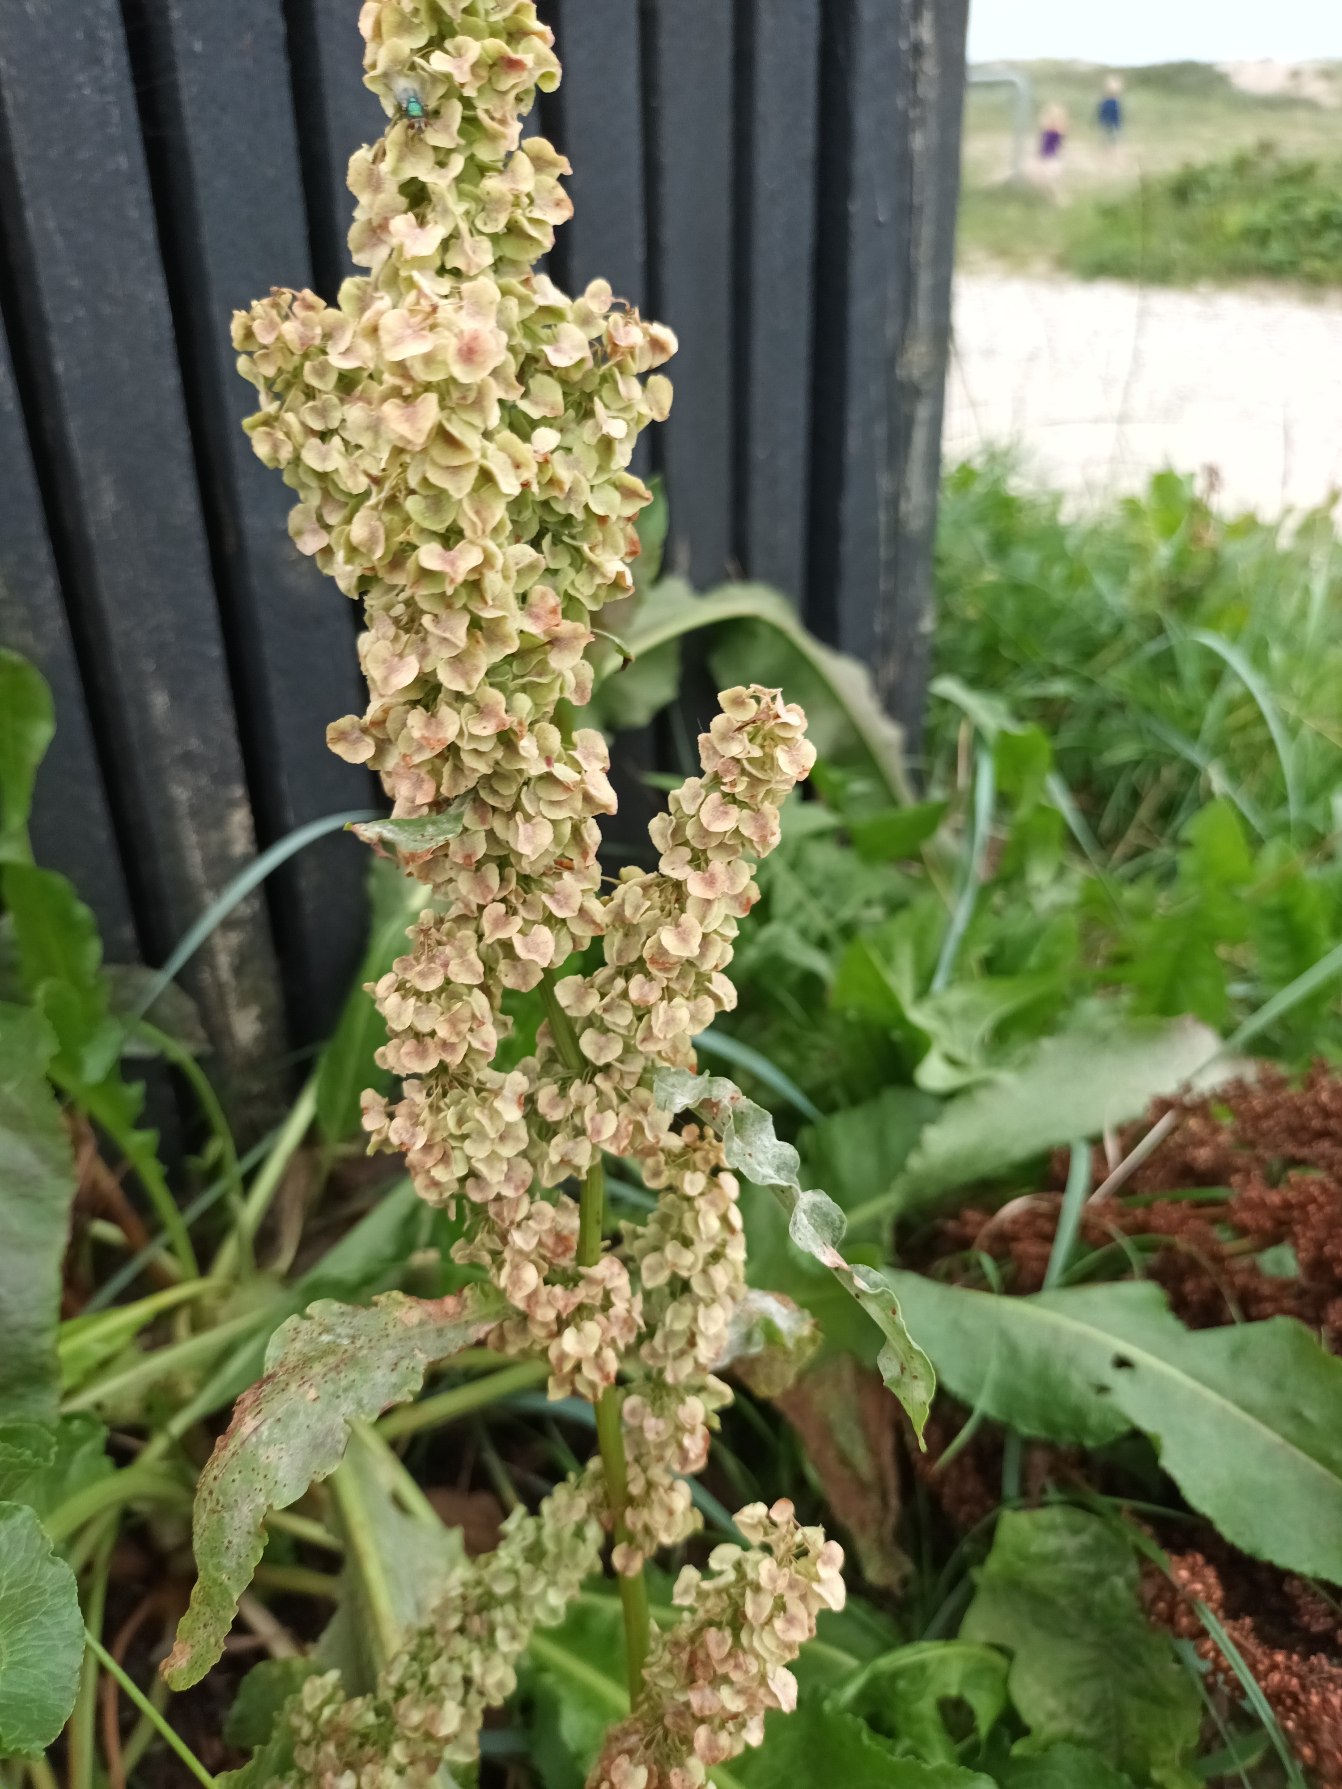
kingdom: Plantae
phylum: Tracheophyta
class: Magnoliopsida
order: Caryophyllales
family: Polygonaceae
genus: Rumex
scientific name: Rumex longifolius
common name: By-skræppe
